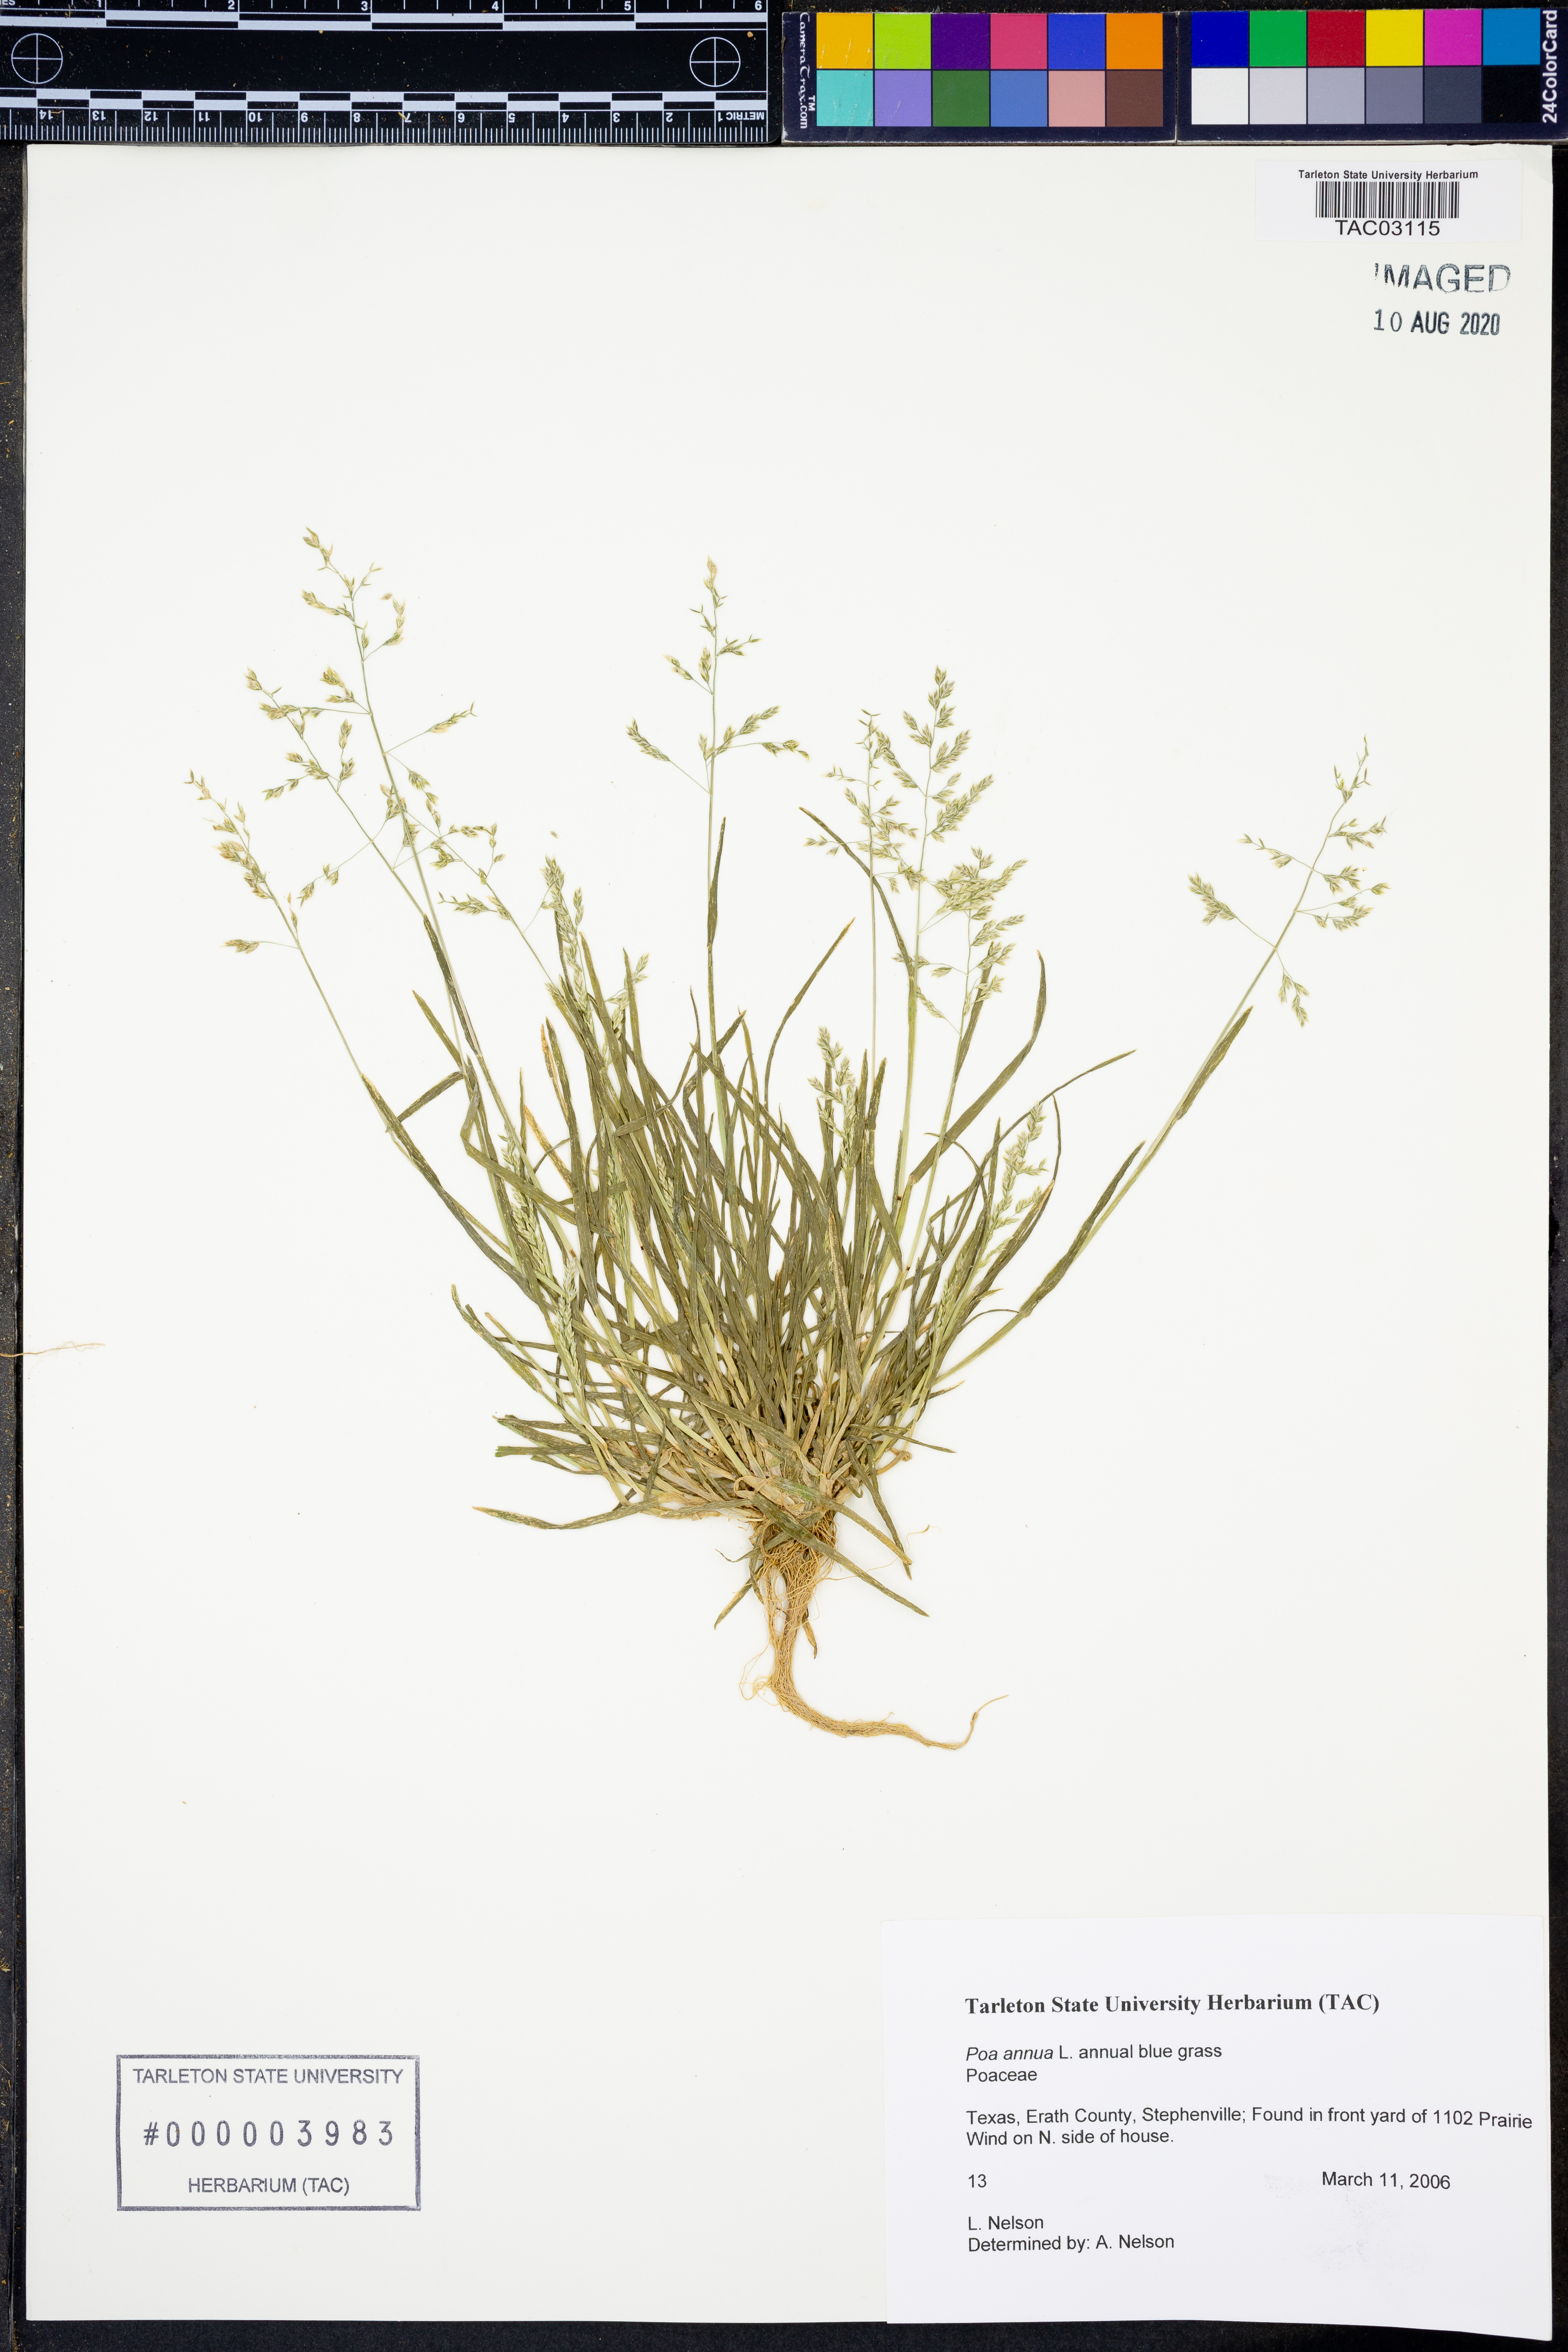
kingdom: Plantae
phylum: Tracheophyta
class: Liliopsida
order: Poales
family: Poaceae
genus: Poa
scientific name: Poa annua
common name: Annual bluegrass
